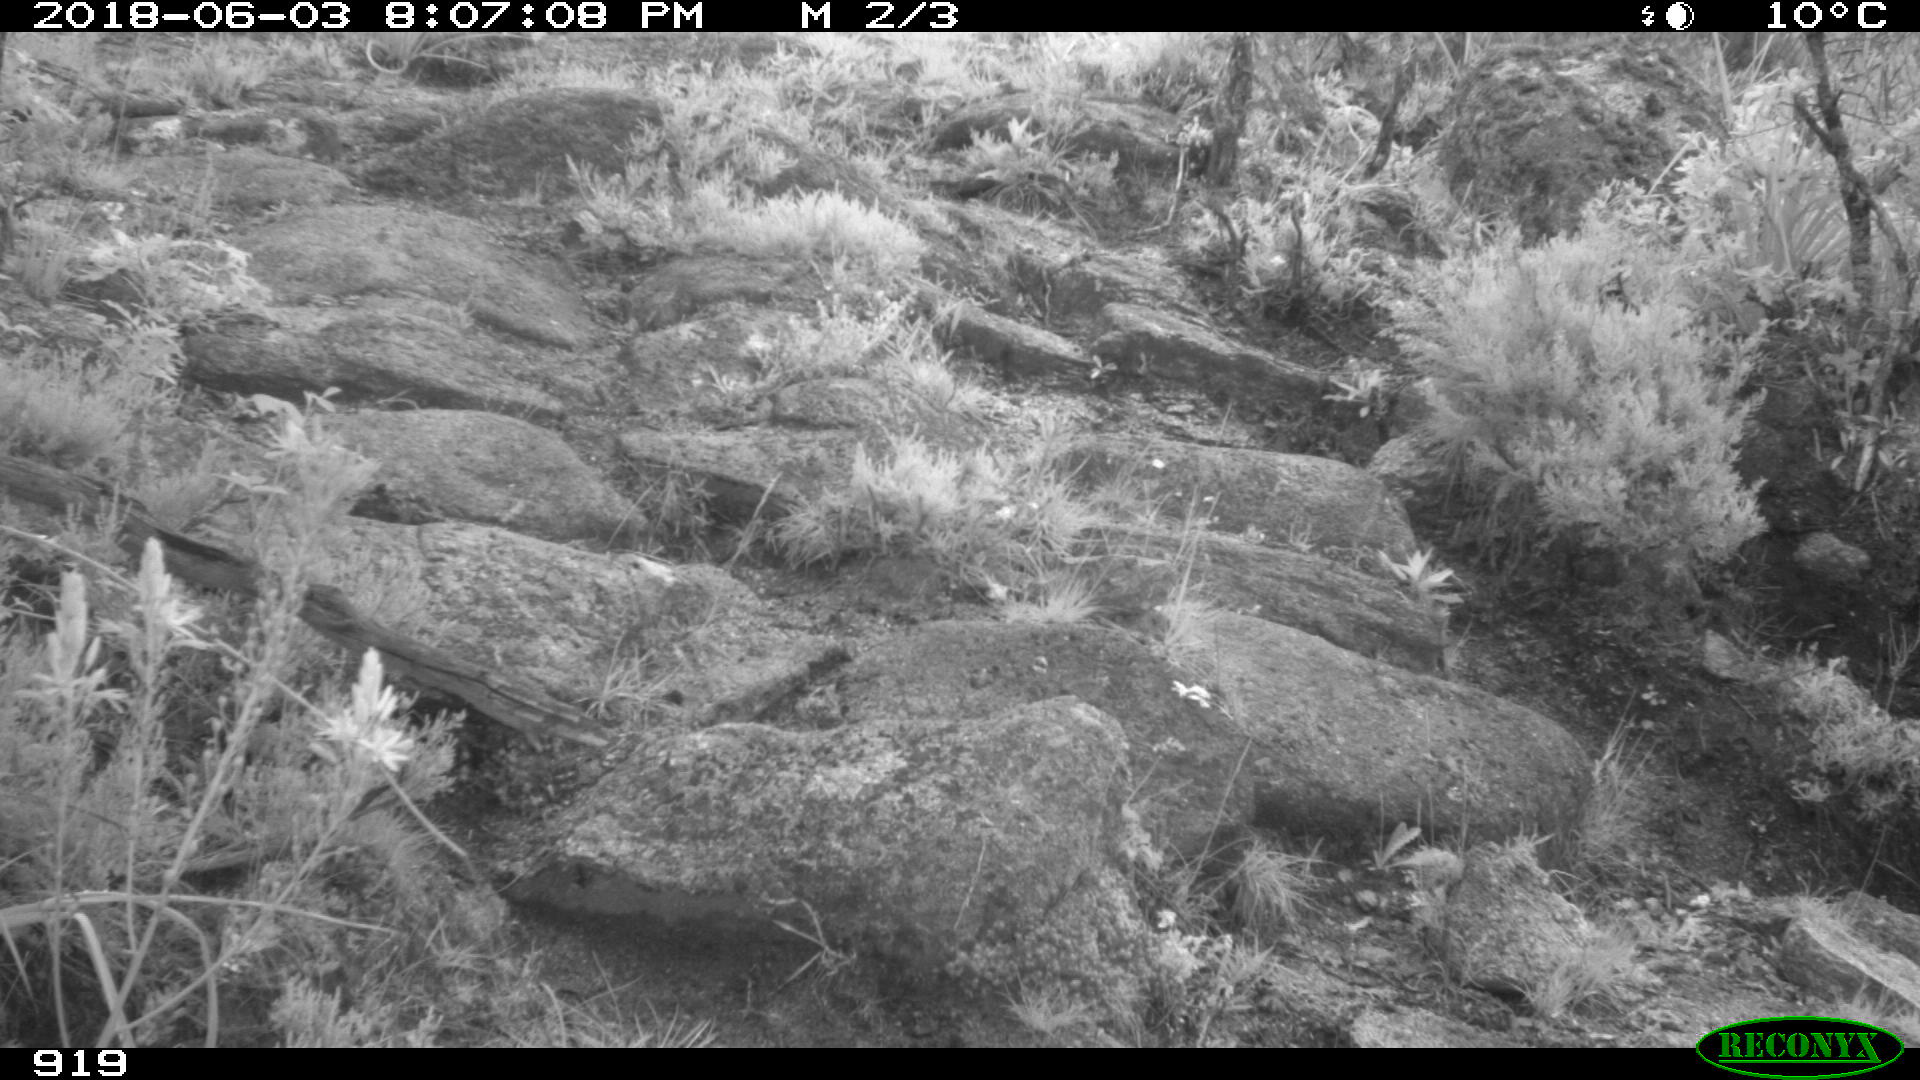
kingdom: Animalia
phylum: Chordata
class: Mammalia
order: Artiodactyla
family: Bovidae
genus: Bos
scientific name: Bos taurus
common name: Domesticated cattle
